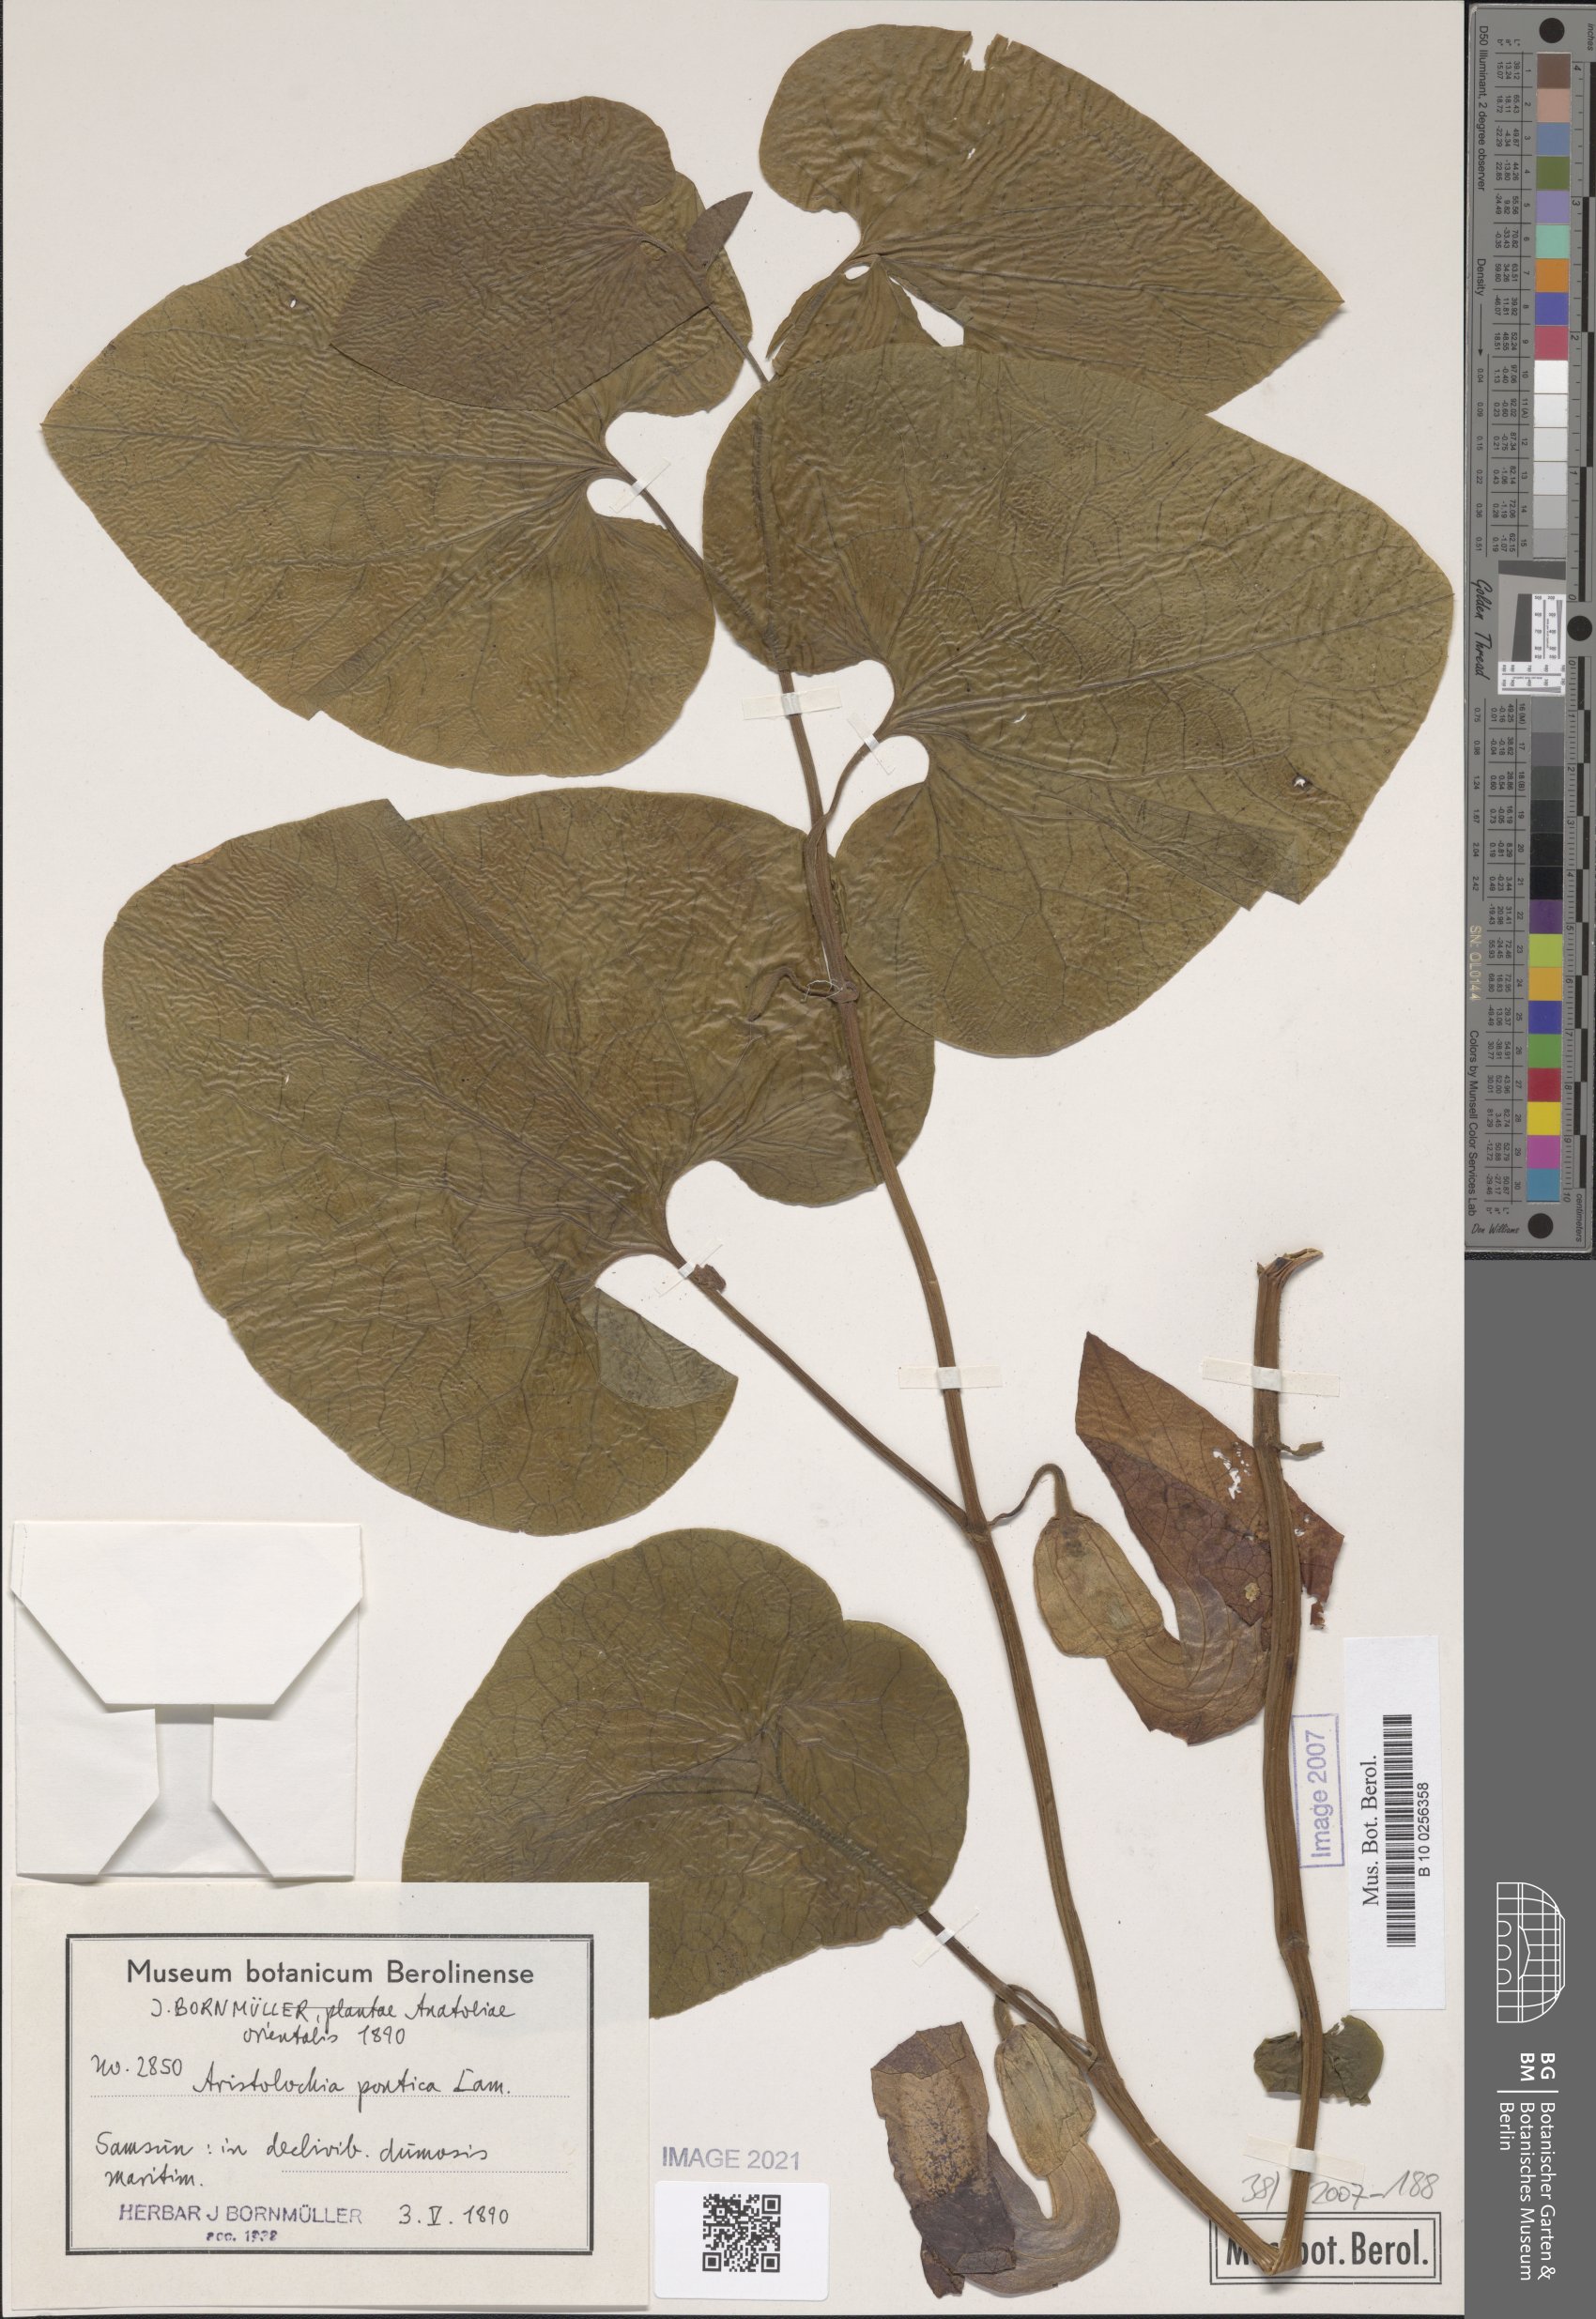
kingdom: Plantae
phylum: Tracheophyta
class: Magnoliopsida
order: Piperales
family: Aristolochiaceae
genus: Aristolochia
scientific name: Aristolochia pontica
